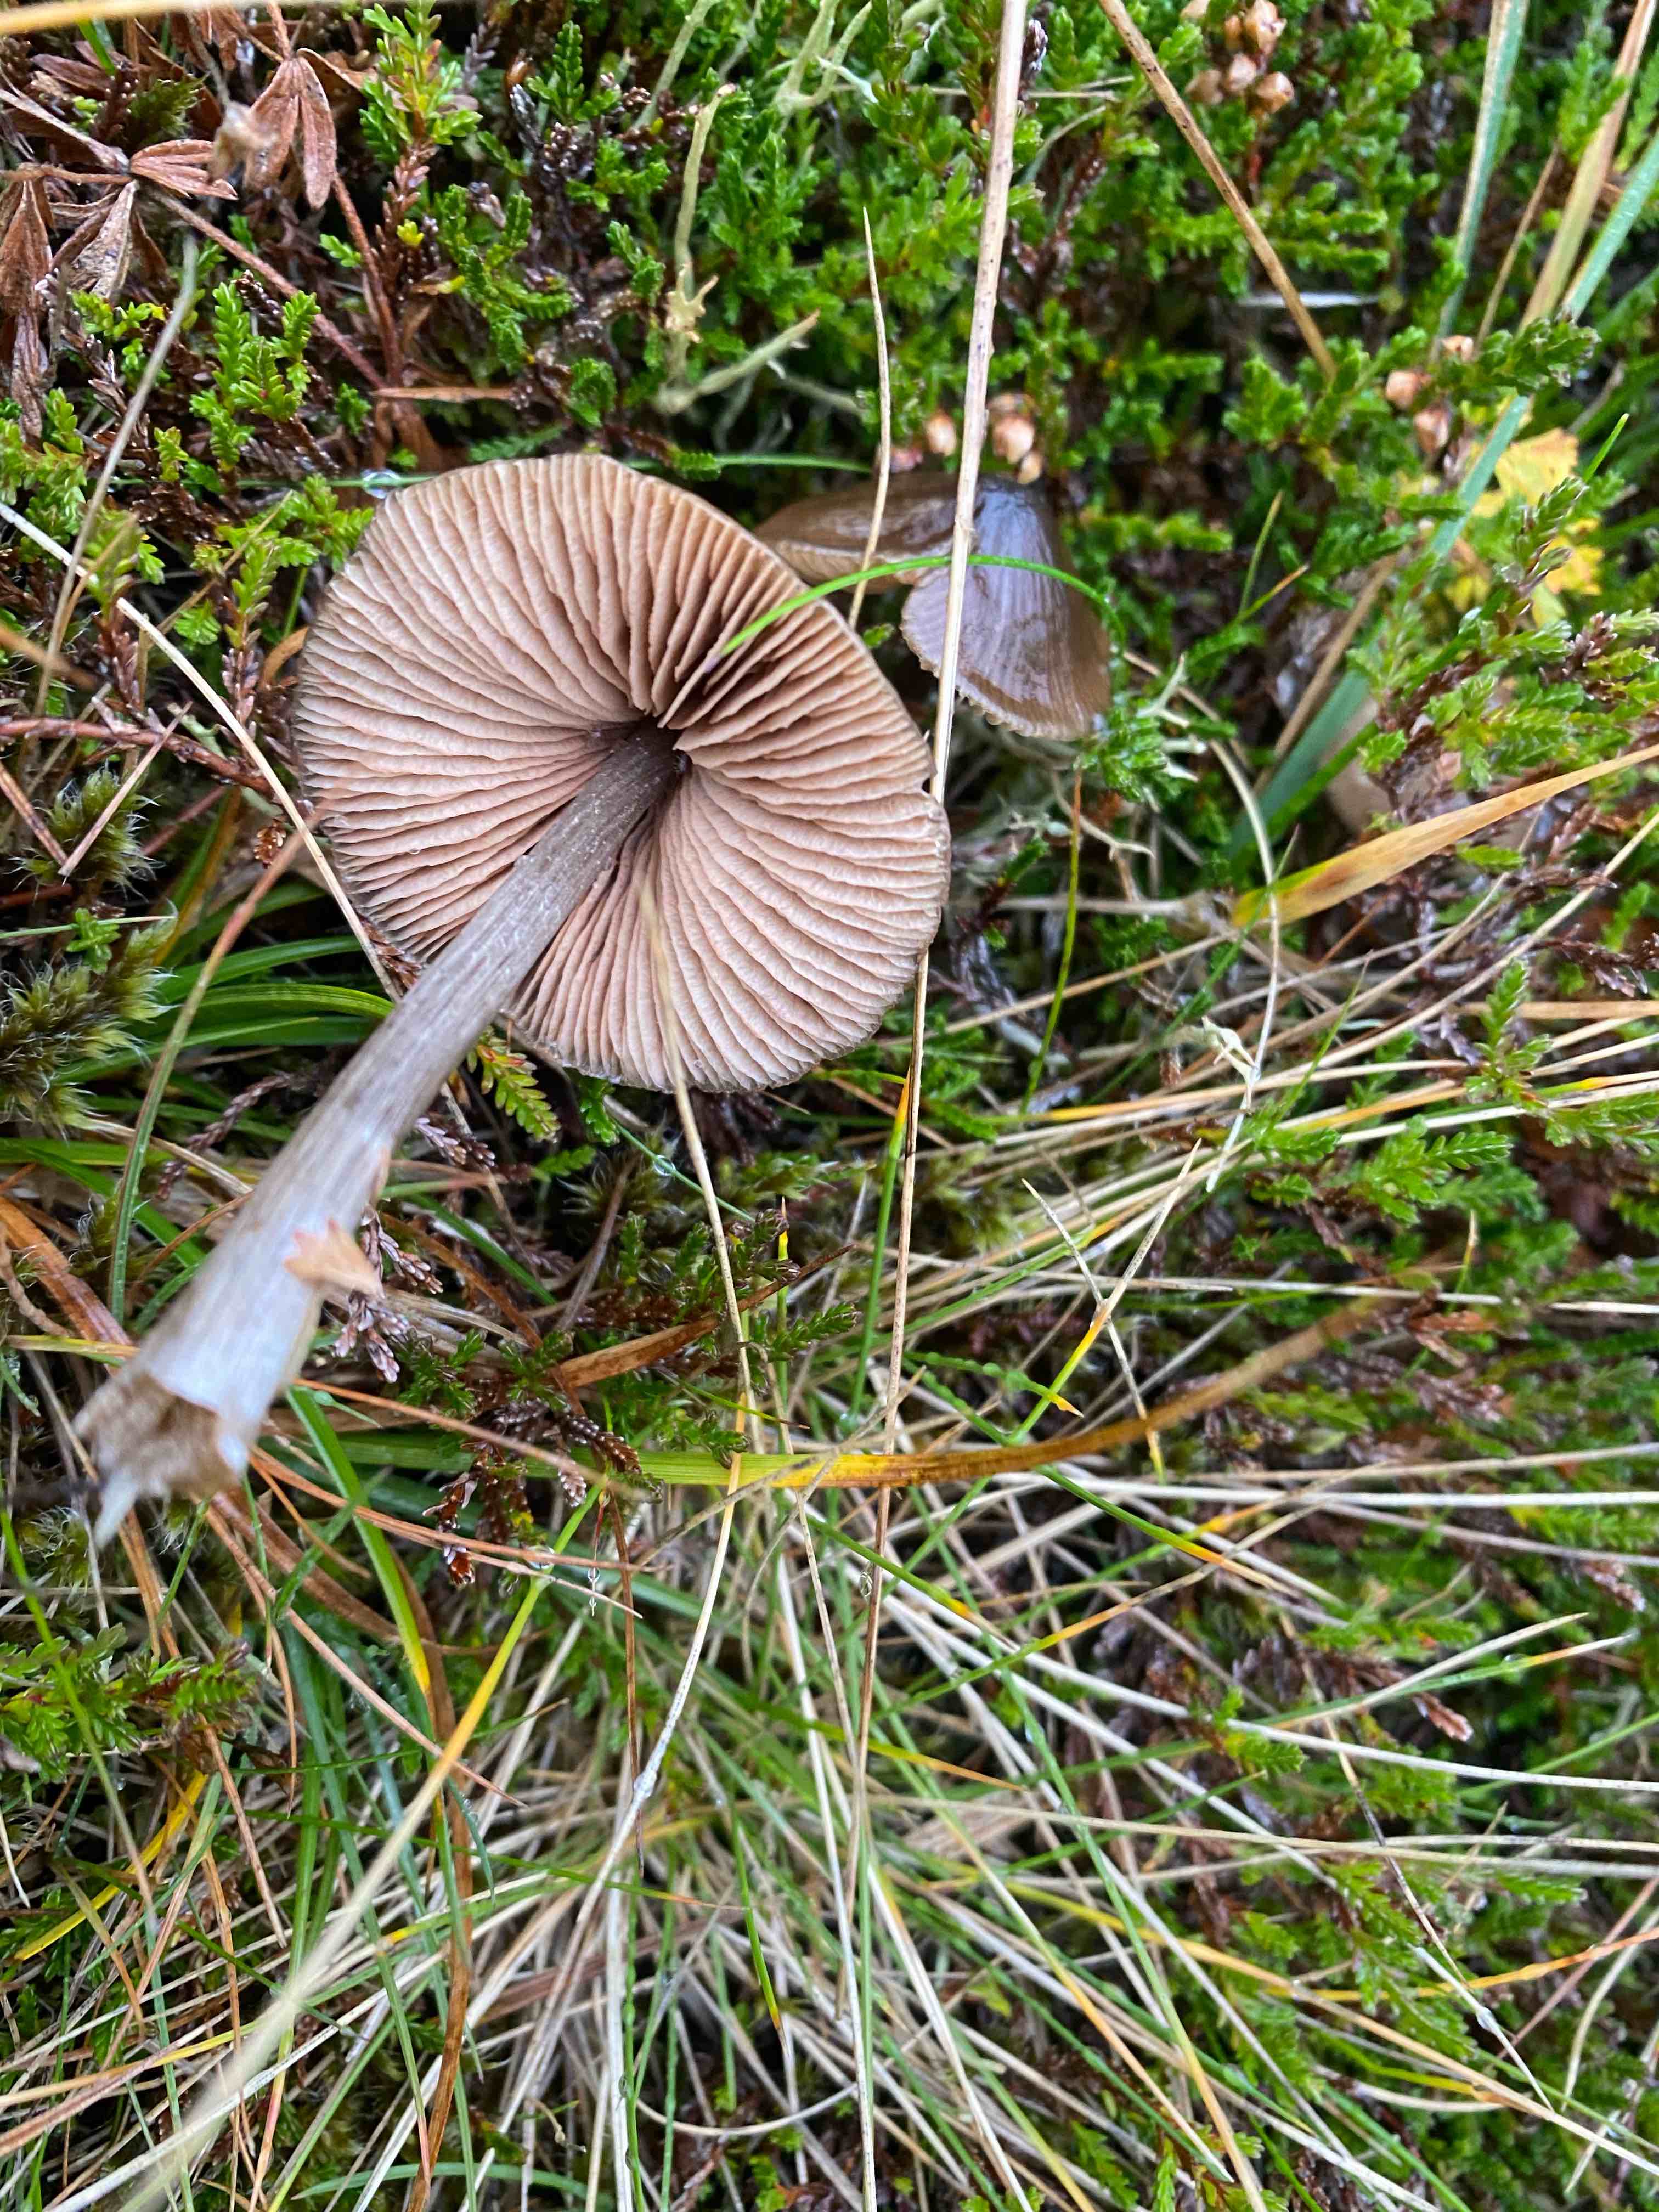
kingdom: Fungi
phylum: Basidiomycota
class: Agaricomycetes
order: Agaricales
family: Entolomataceae
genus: Entoloma
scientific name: Entoloma conferendum
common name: stjernesporet rødblad
